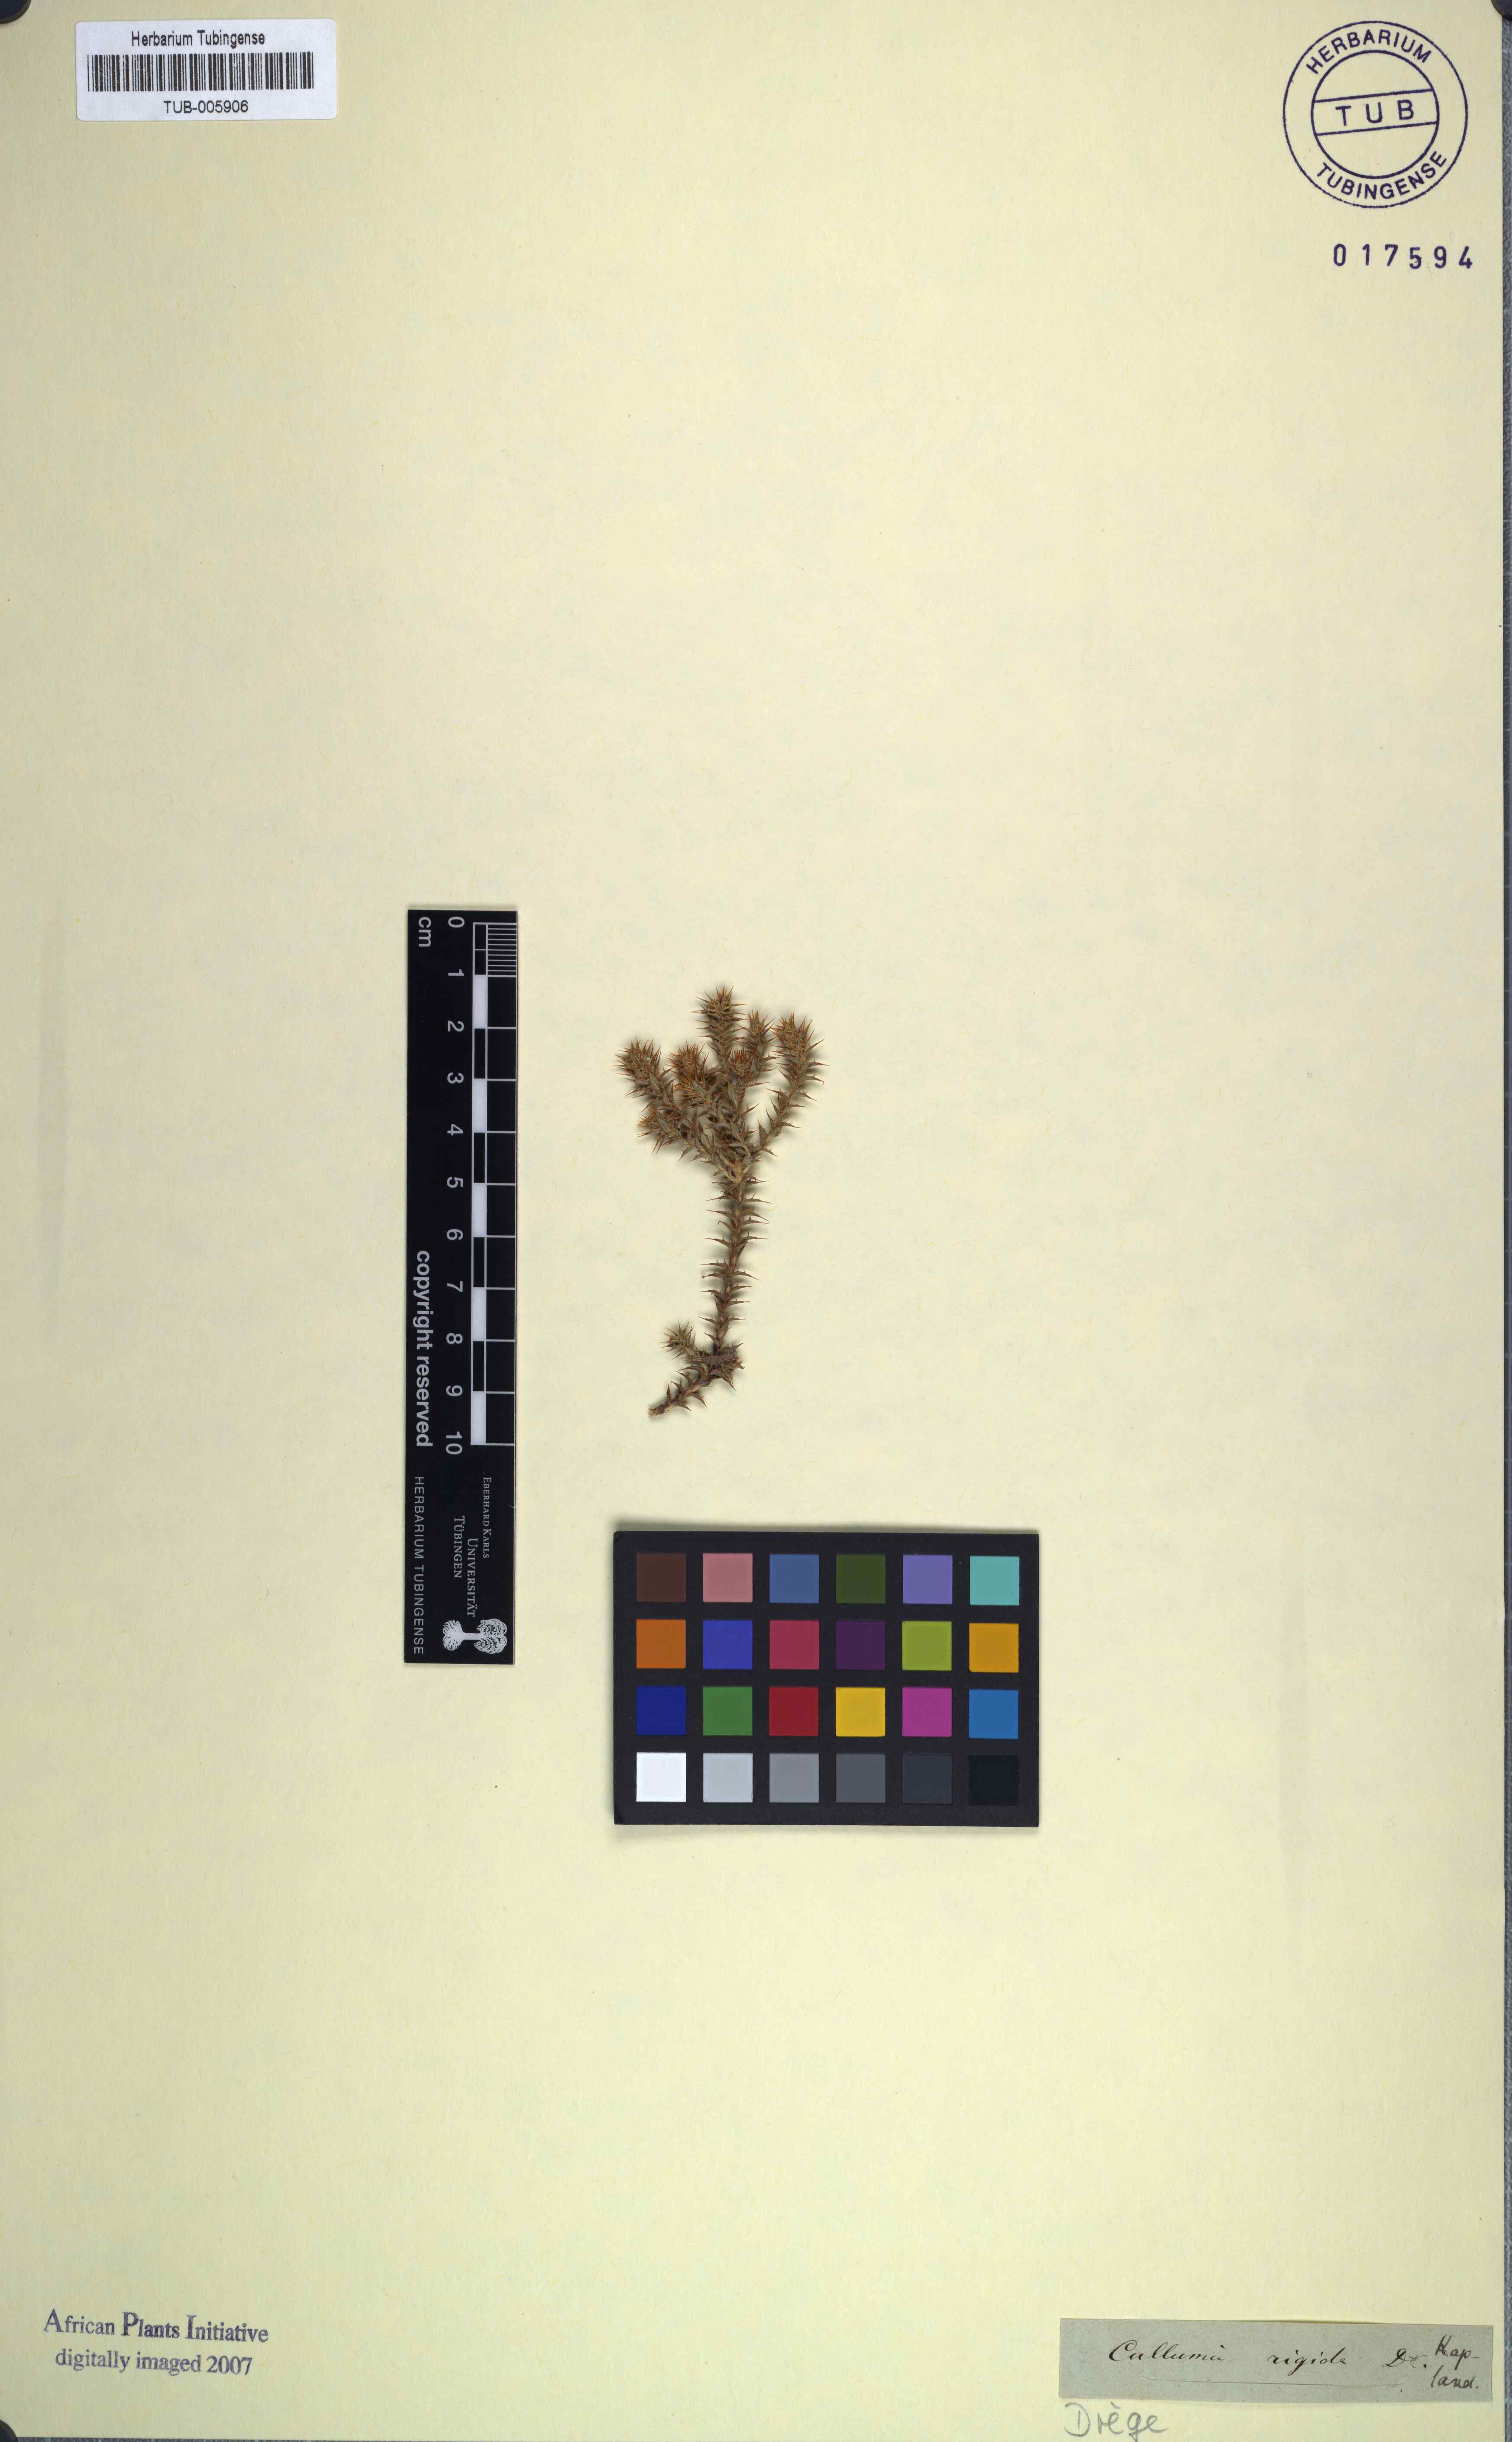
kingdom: Plantae
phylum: Tracheophyta
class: Magnoliopsida
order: Asterales
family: Asteraceae
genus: Cullumia
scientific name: Cullumia rigida
